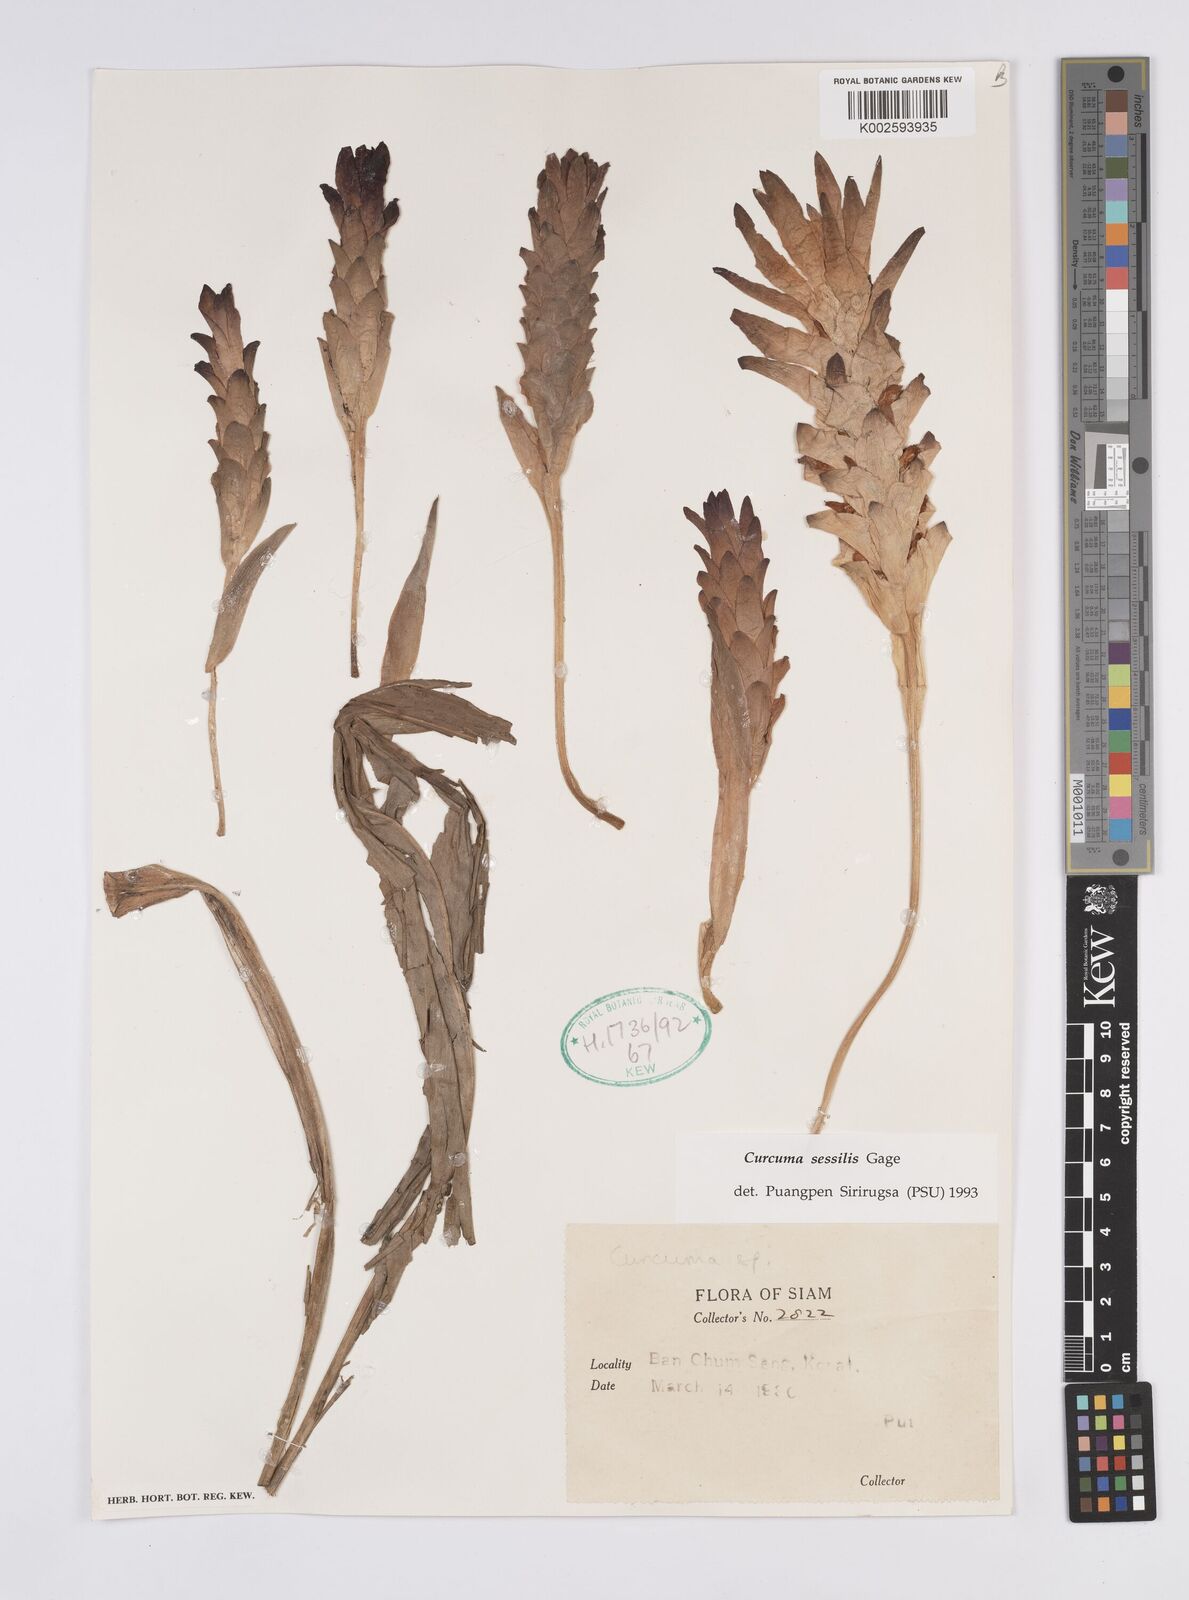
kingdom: Plantae
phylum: Tracheophyta
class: Liliopsida
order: Zingiberales
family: Zingiberaceae
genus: Curcuma
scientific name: Curcuma sessilis
